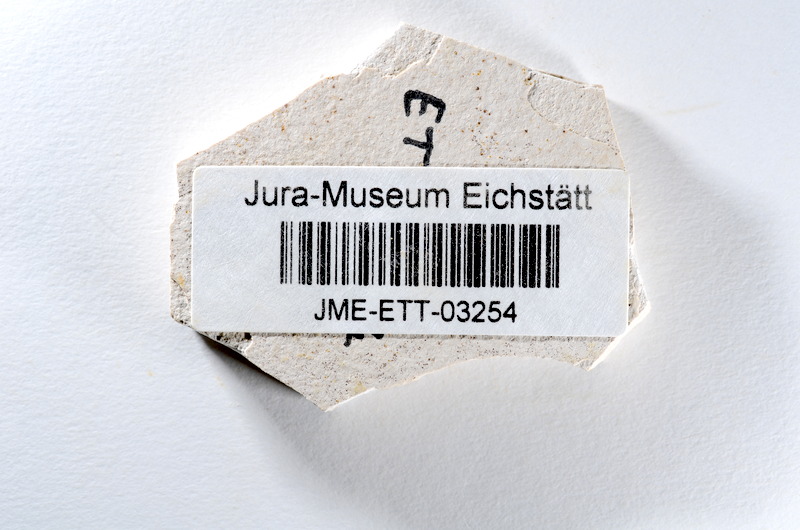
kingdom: Animalia
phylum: Chordata
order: Salmoniformes
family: Orthogonikleithridae
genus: Orthogonikleithrus
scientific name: Orthogonikleithrus hoelli
